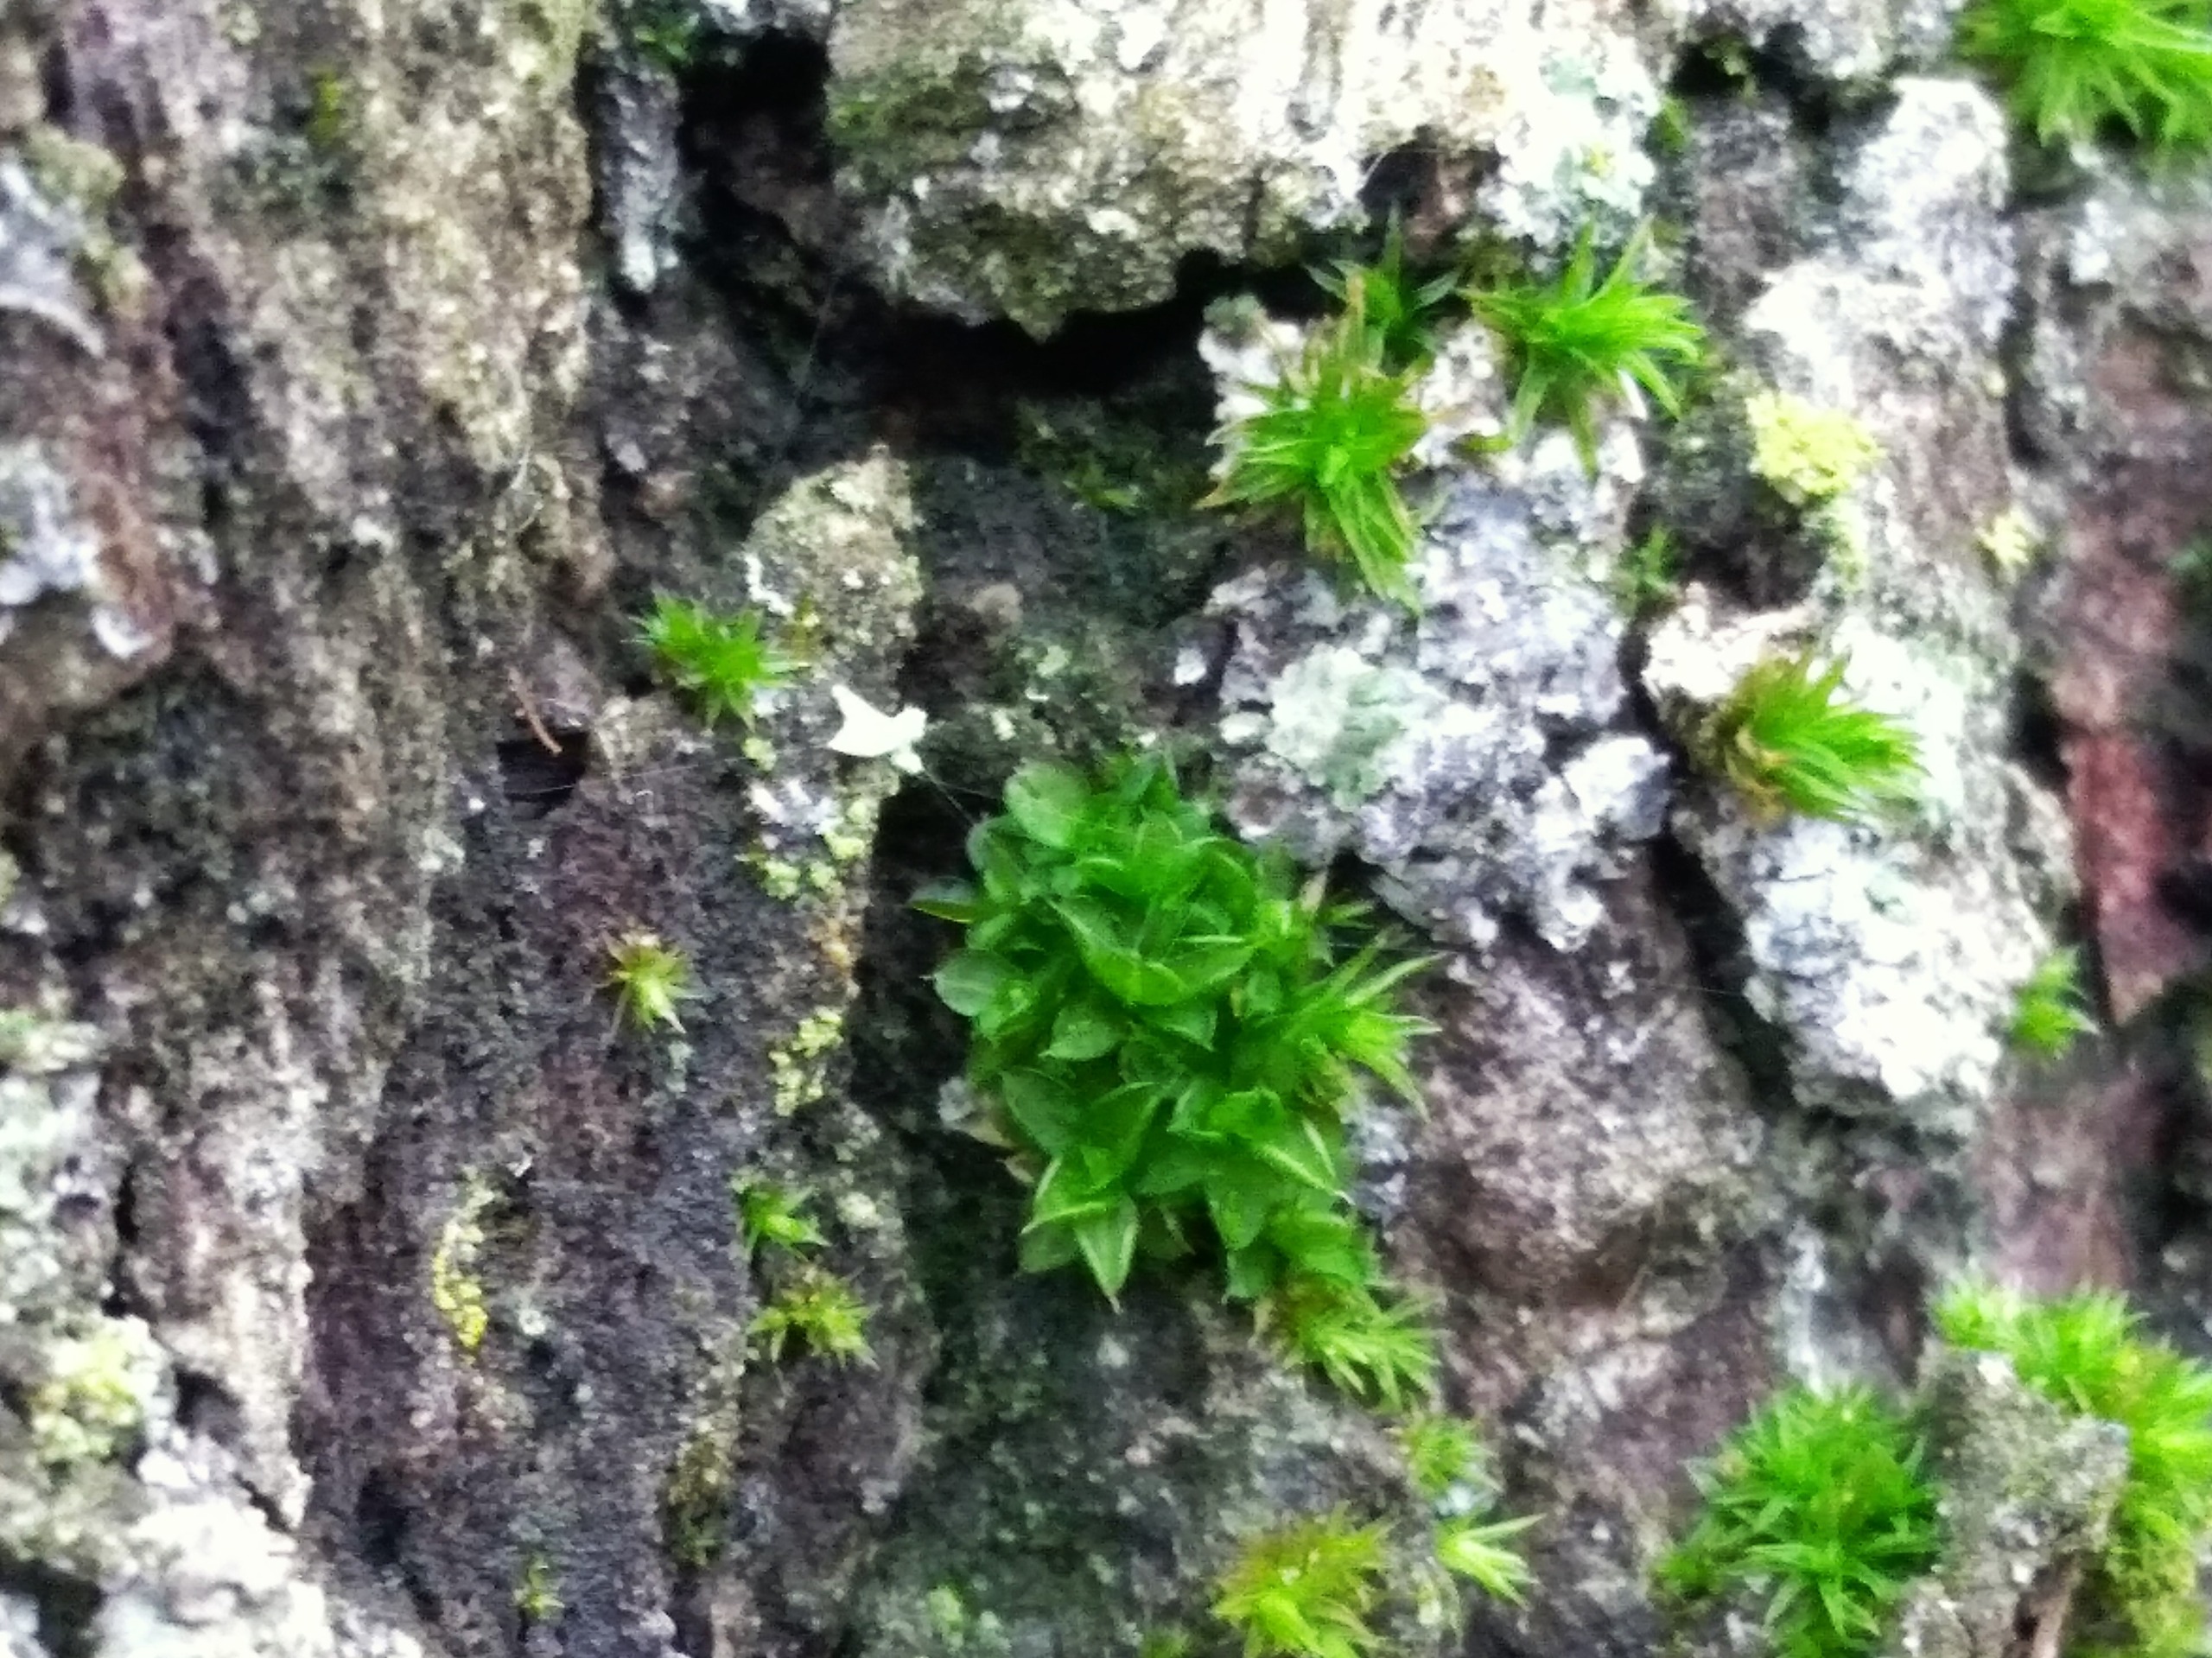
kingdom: Plantae
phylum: Bryophyta
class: Bryopsida
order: Pottiales
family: Pottiaceae
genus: Syntrichia
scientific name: Syntrichia papillosa
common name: Bark-hårstjerne
